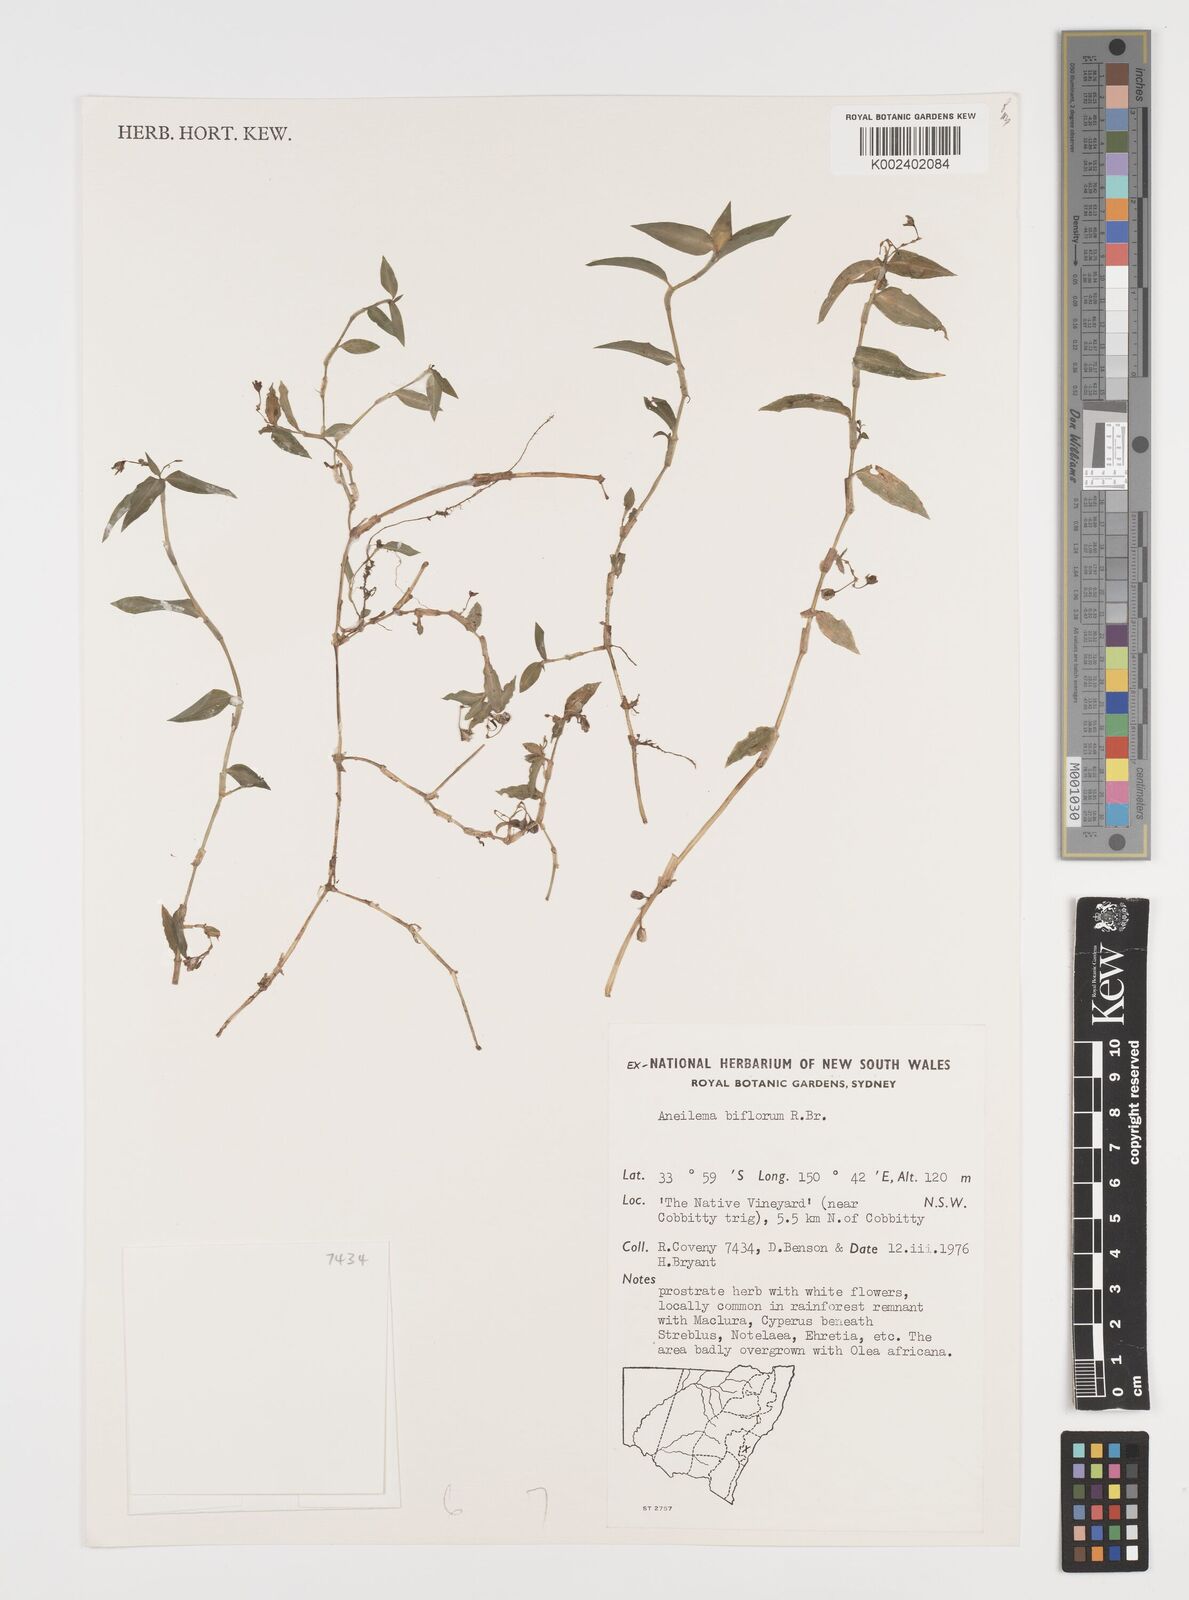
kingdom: Plantae
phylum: Tracheophyta
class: Liliopsida
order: Commelinales
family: Commelinaceae
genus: Aneilema
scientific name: Aneilema biflorum
